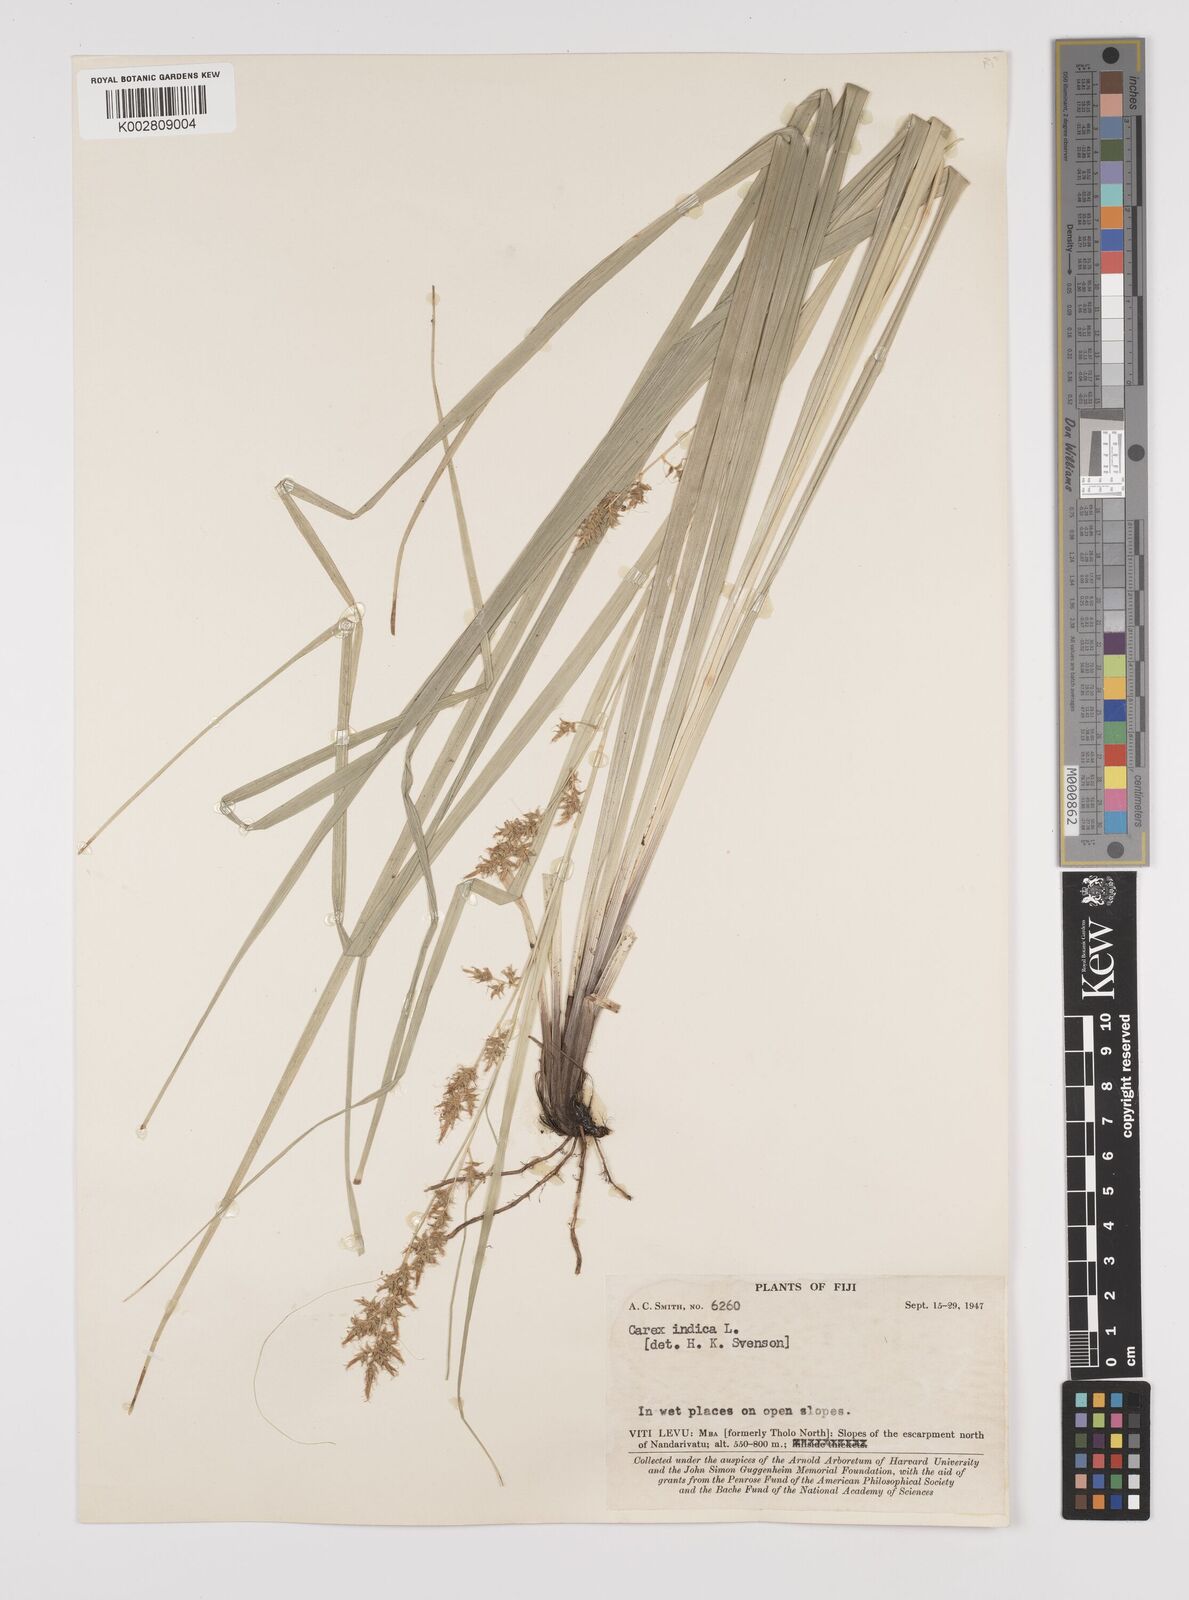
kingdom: Plantae
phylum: Tracheophyta
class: Liliopsida
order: Poales
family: Cyperaceae
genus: Carex
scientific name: Carex indica
